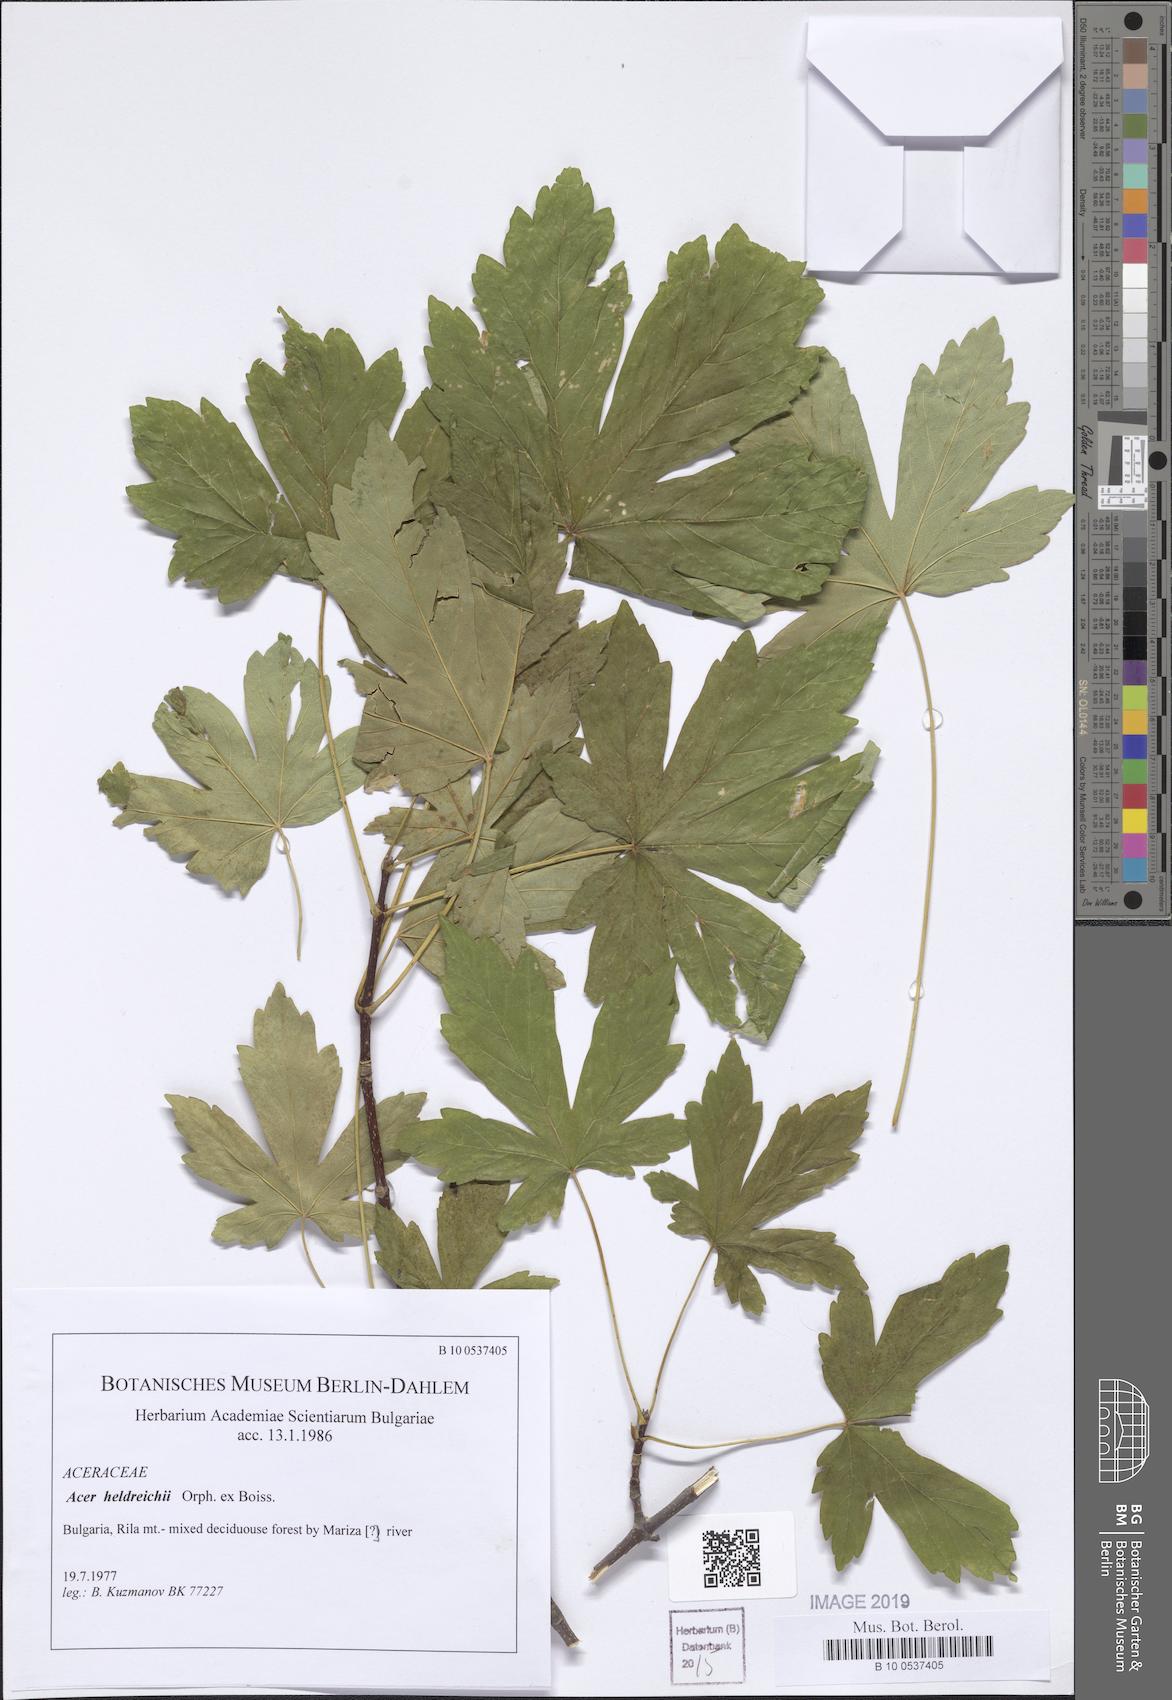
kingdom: Plantae
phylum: Tracheophyta
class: Magnoliopsida
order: Sapindales
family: Sapindaceae
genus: Acer
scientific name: Acer heldreichii
